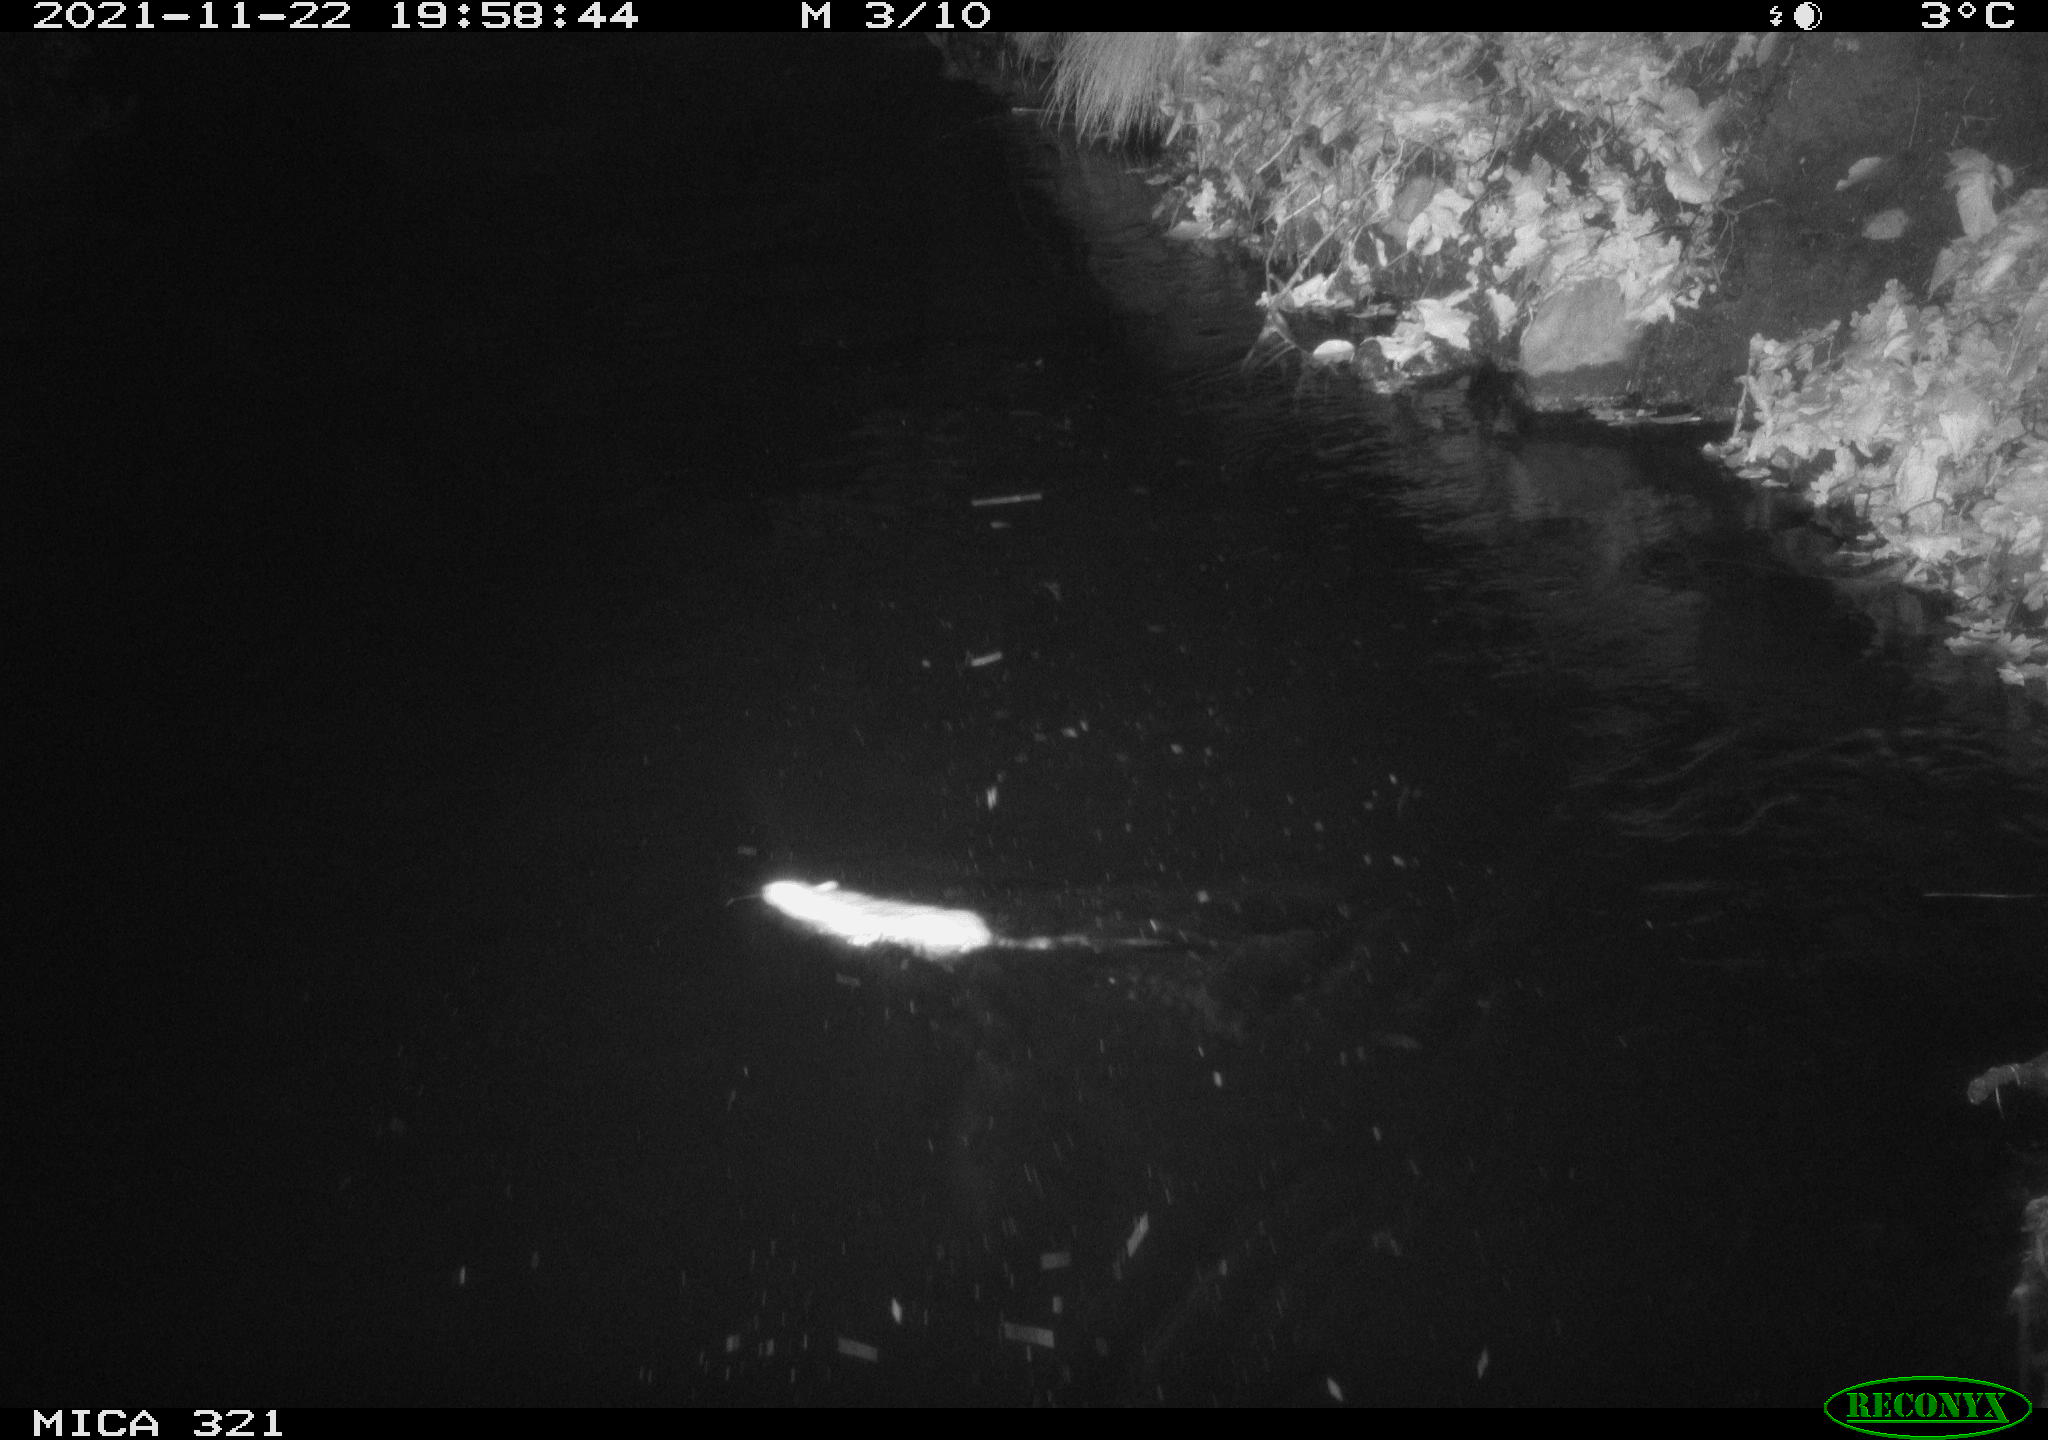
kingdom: Animalia
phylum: Chordata
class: Mammalia
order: Rodentia
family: Muridae
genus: Rattus
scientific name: Rattus norvegicus
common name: Brown rat
